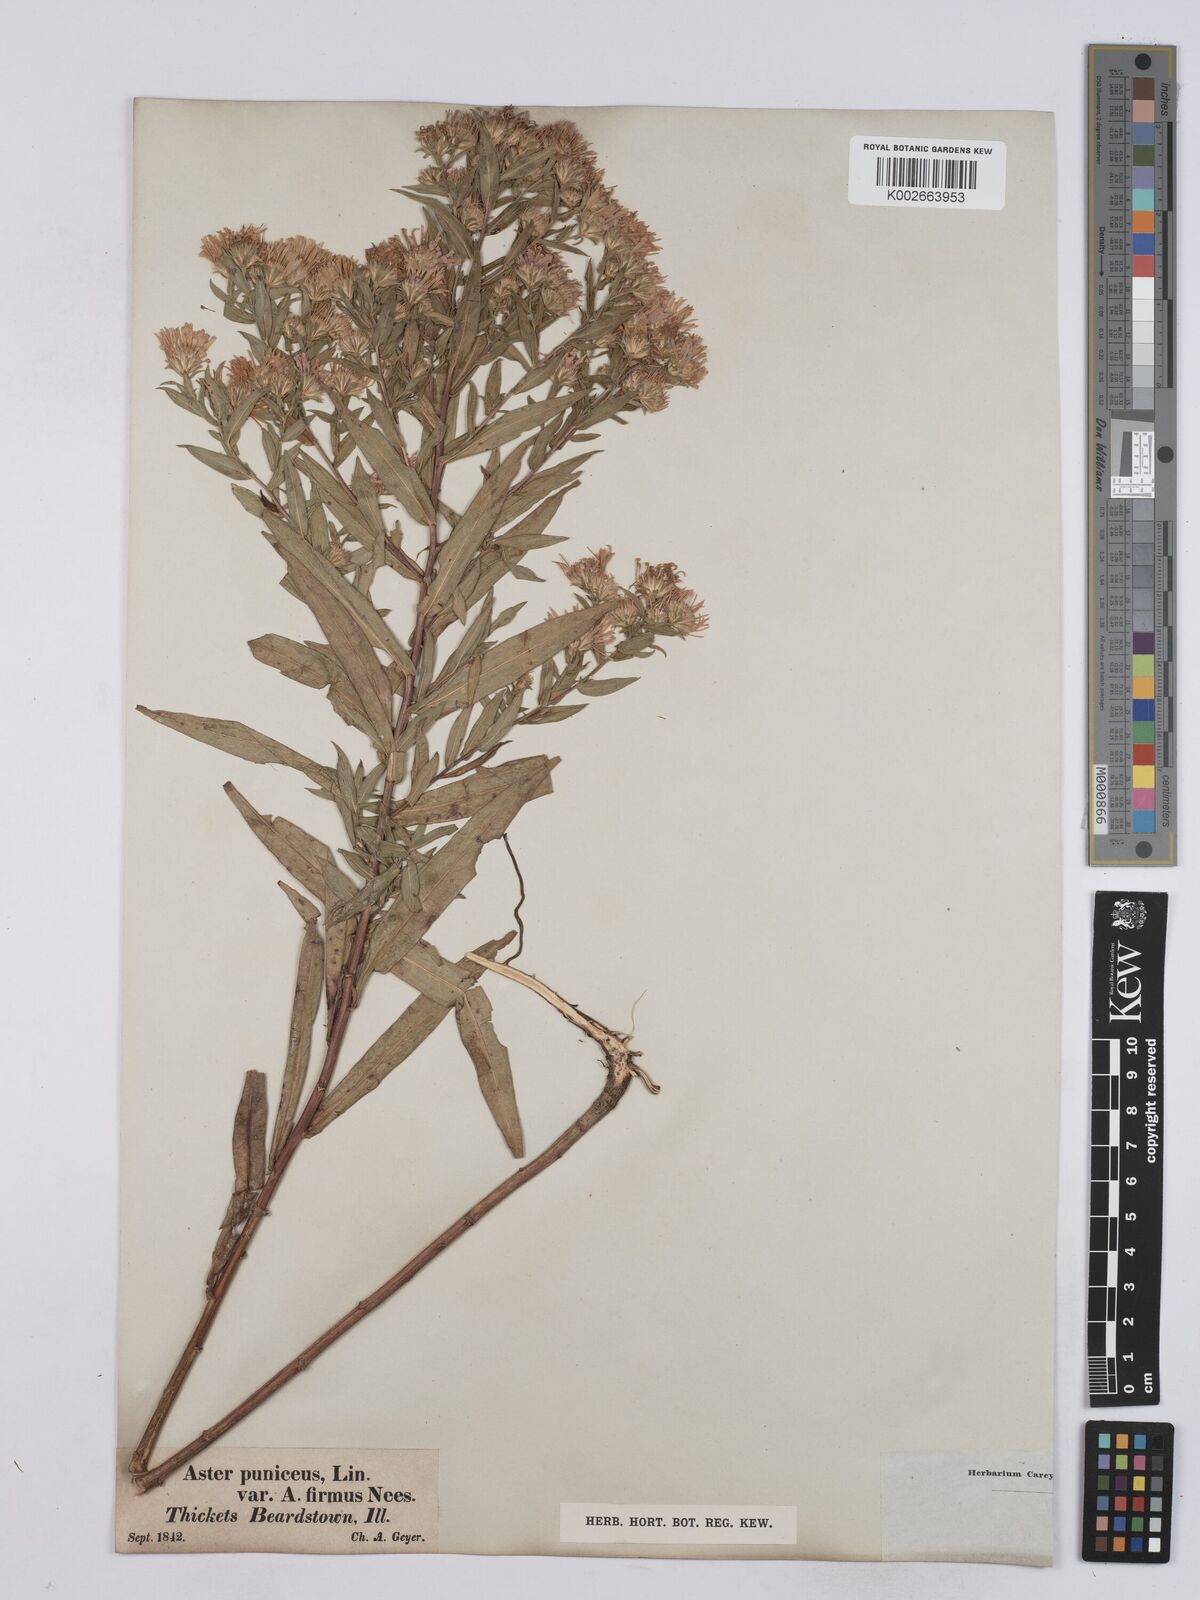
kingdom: Plantae
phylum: Tracheophyta
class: Magnoliopsida
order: Asterales
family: Asteraceae
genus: Symphyotrichum
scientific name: Symphyotrichum puniceum
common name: Bog aster
